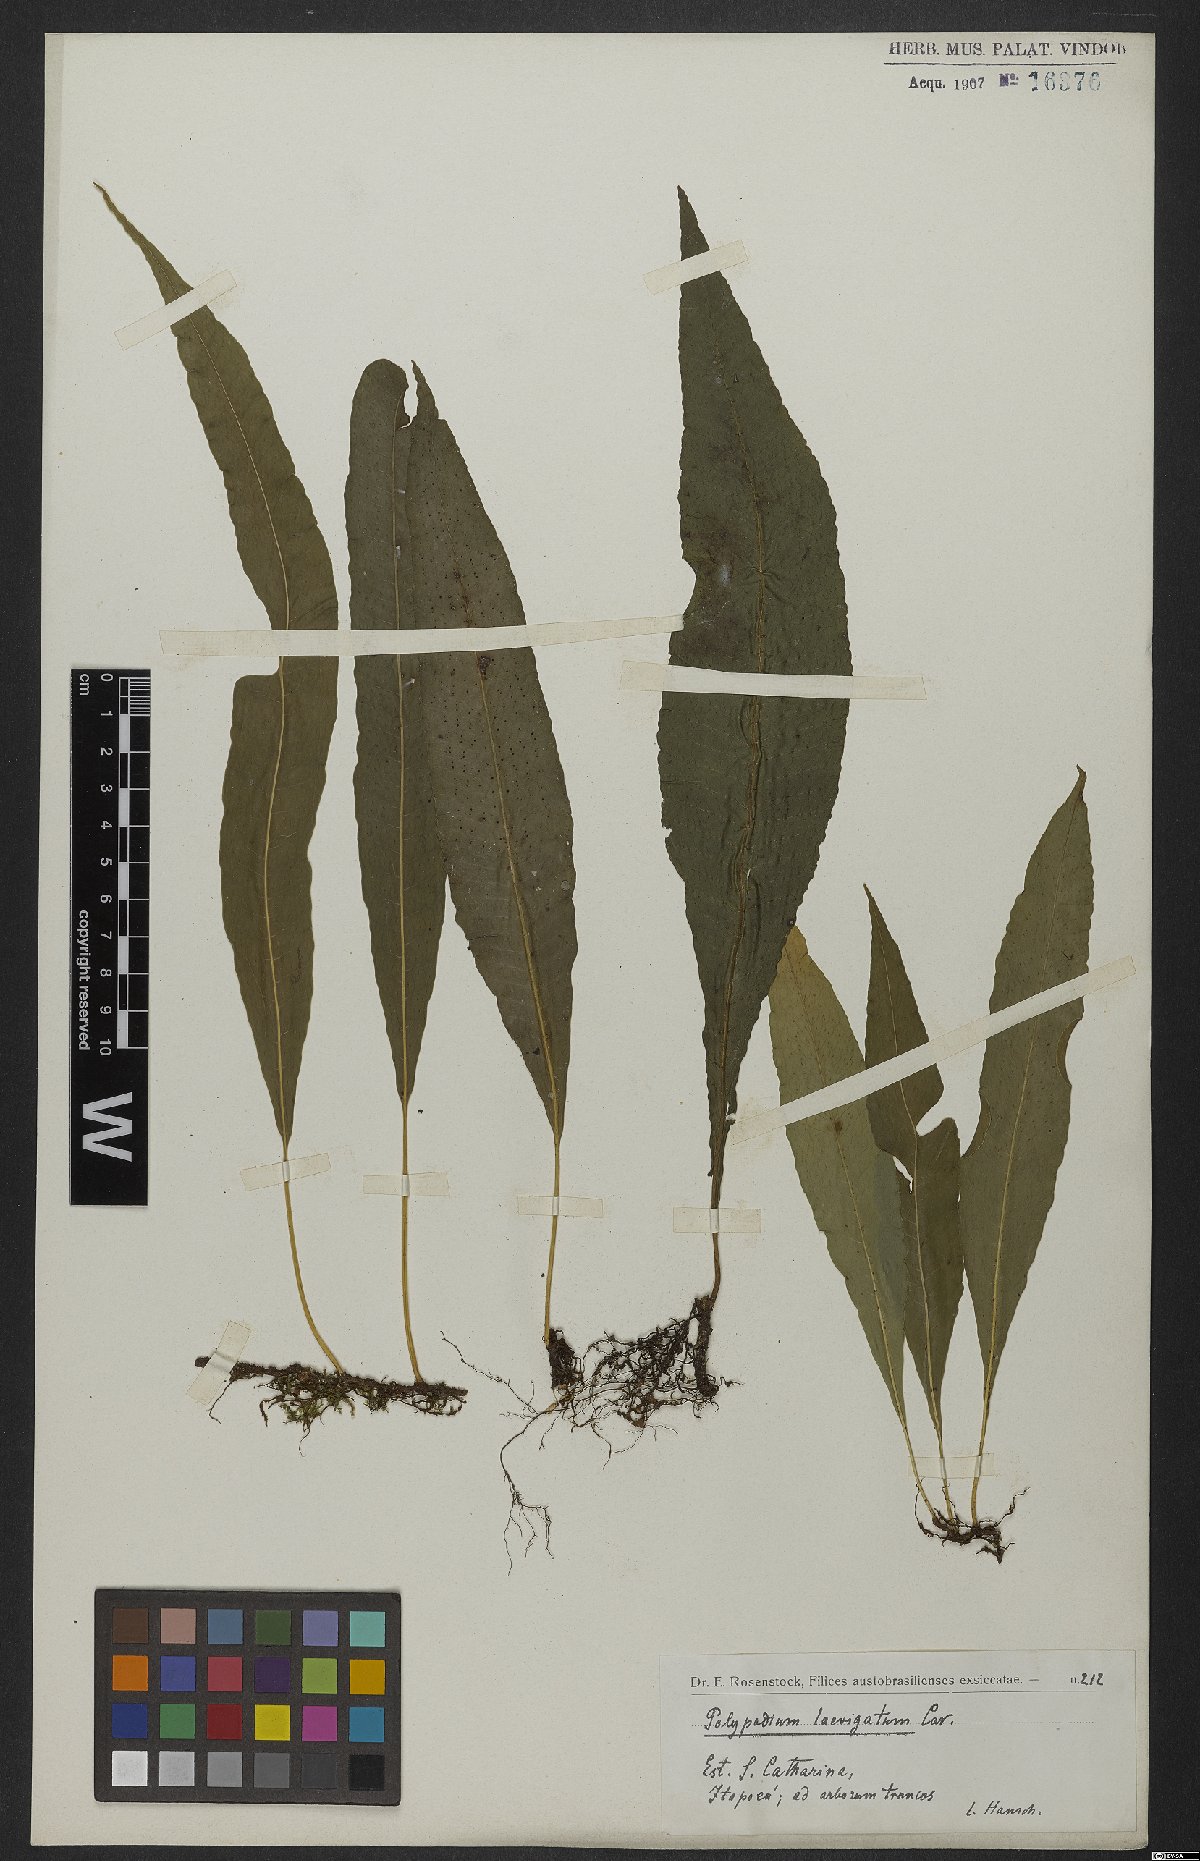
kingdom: Plantae
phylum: Tracheophyta
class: Polypodiopsida
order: Polypodiales
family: Polypodiaceae
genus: Serpocaulon
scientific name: Serpocaulon levigatum
